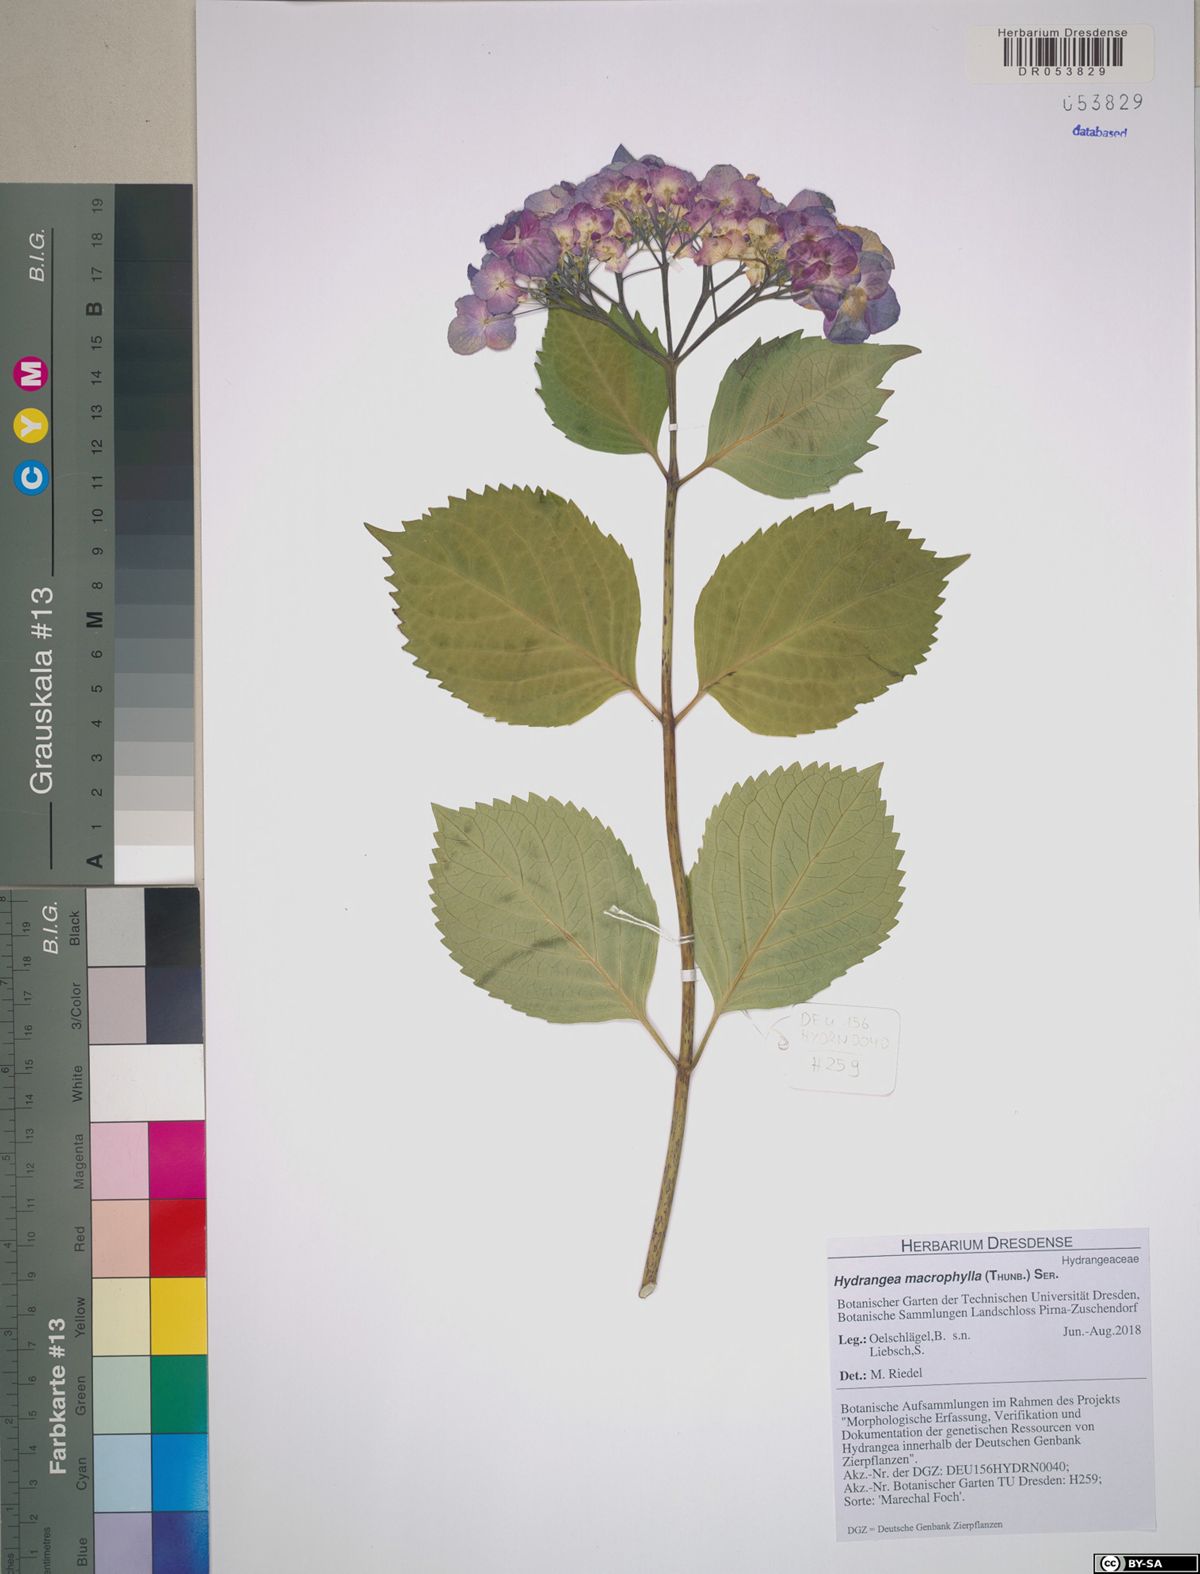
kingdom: Plantae
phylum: Tracheophyta
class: Magnoliopsida
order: Cornales
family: Hydrangeaceae
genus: Hydrangea
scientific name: Hydrangea macrophylla
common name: Hydrangea
